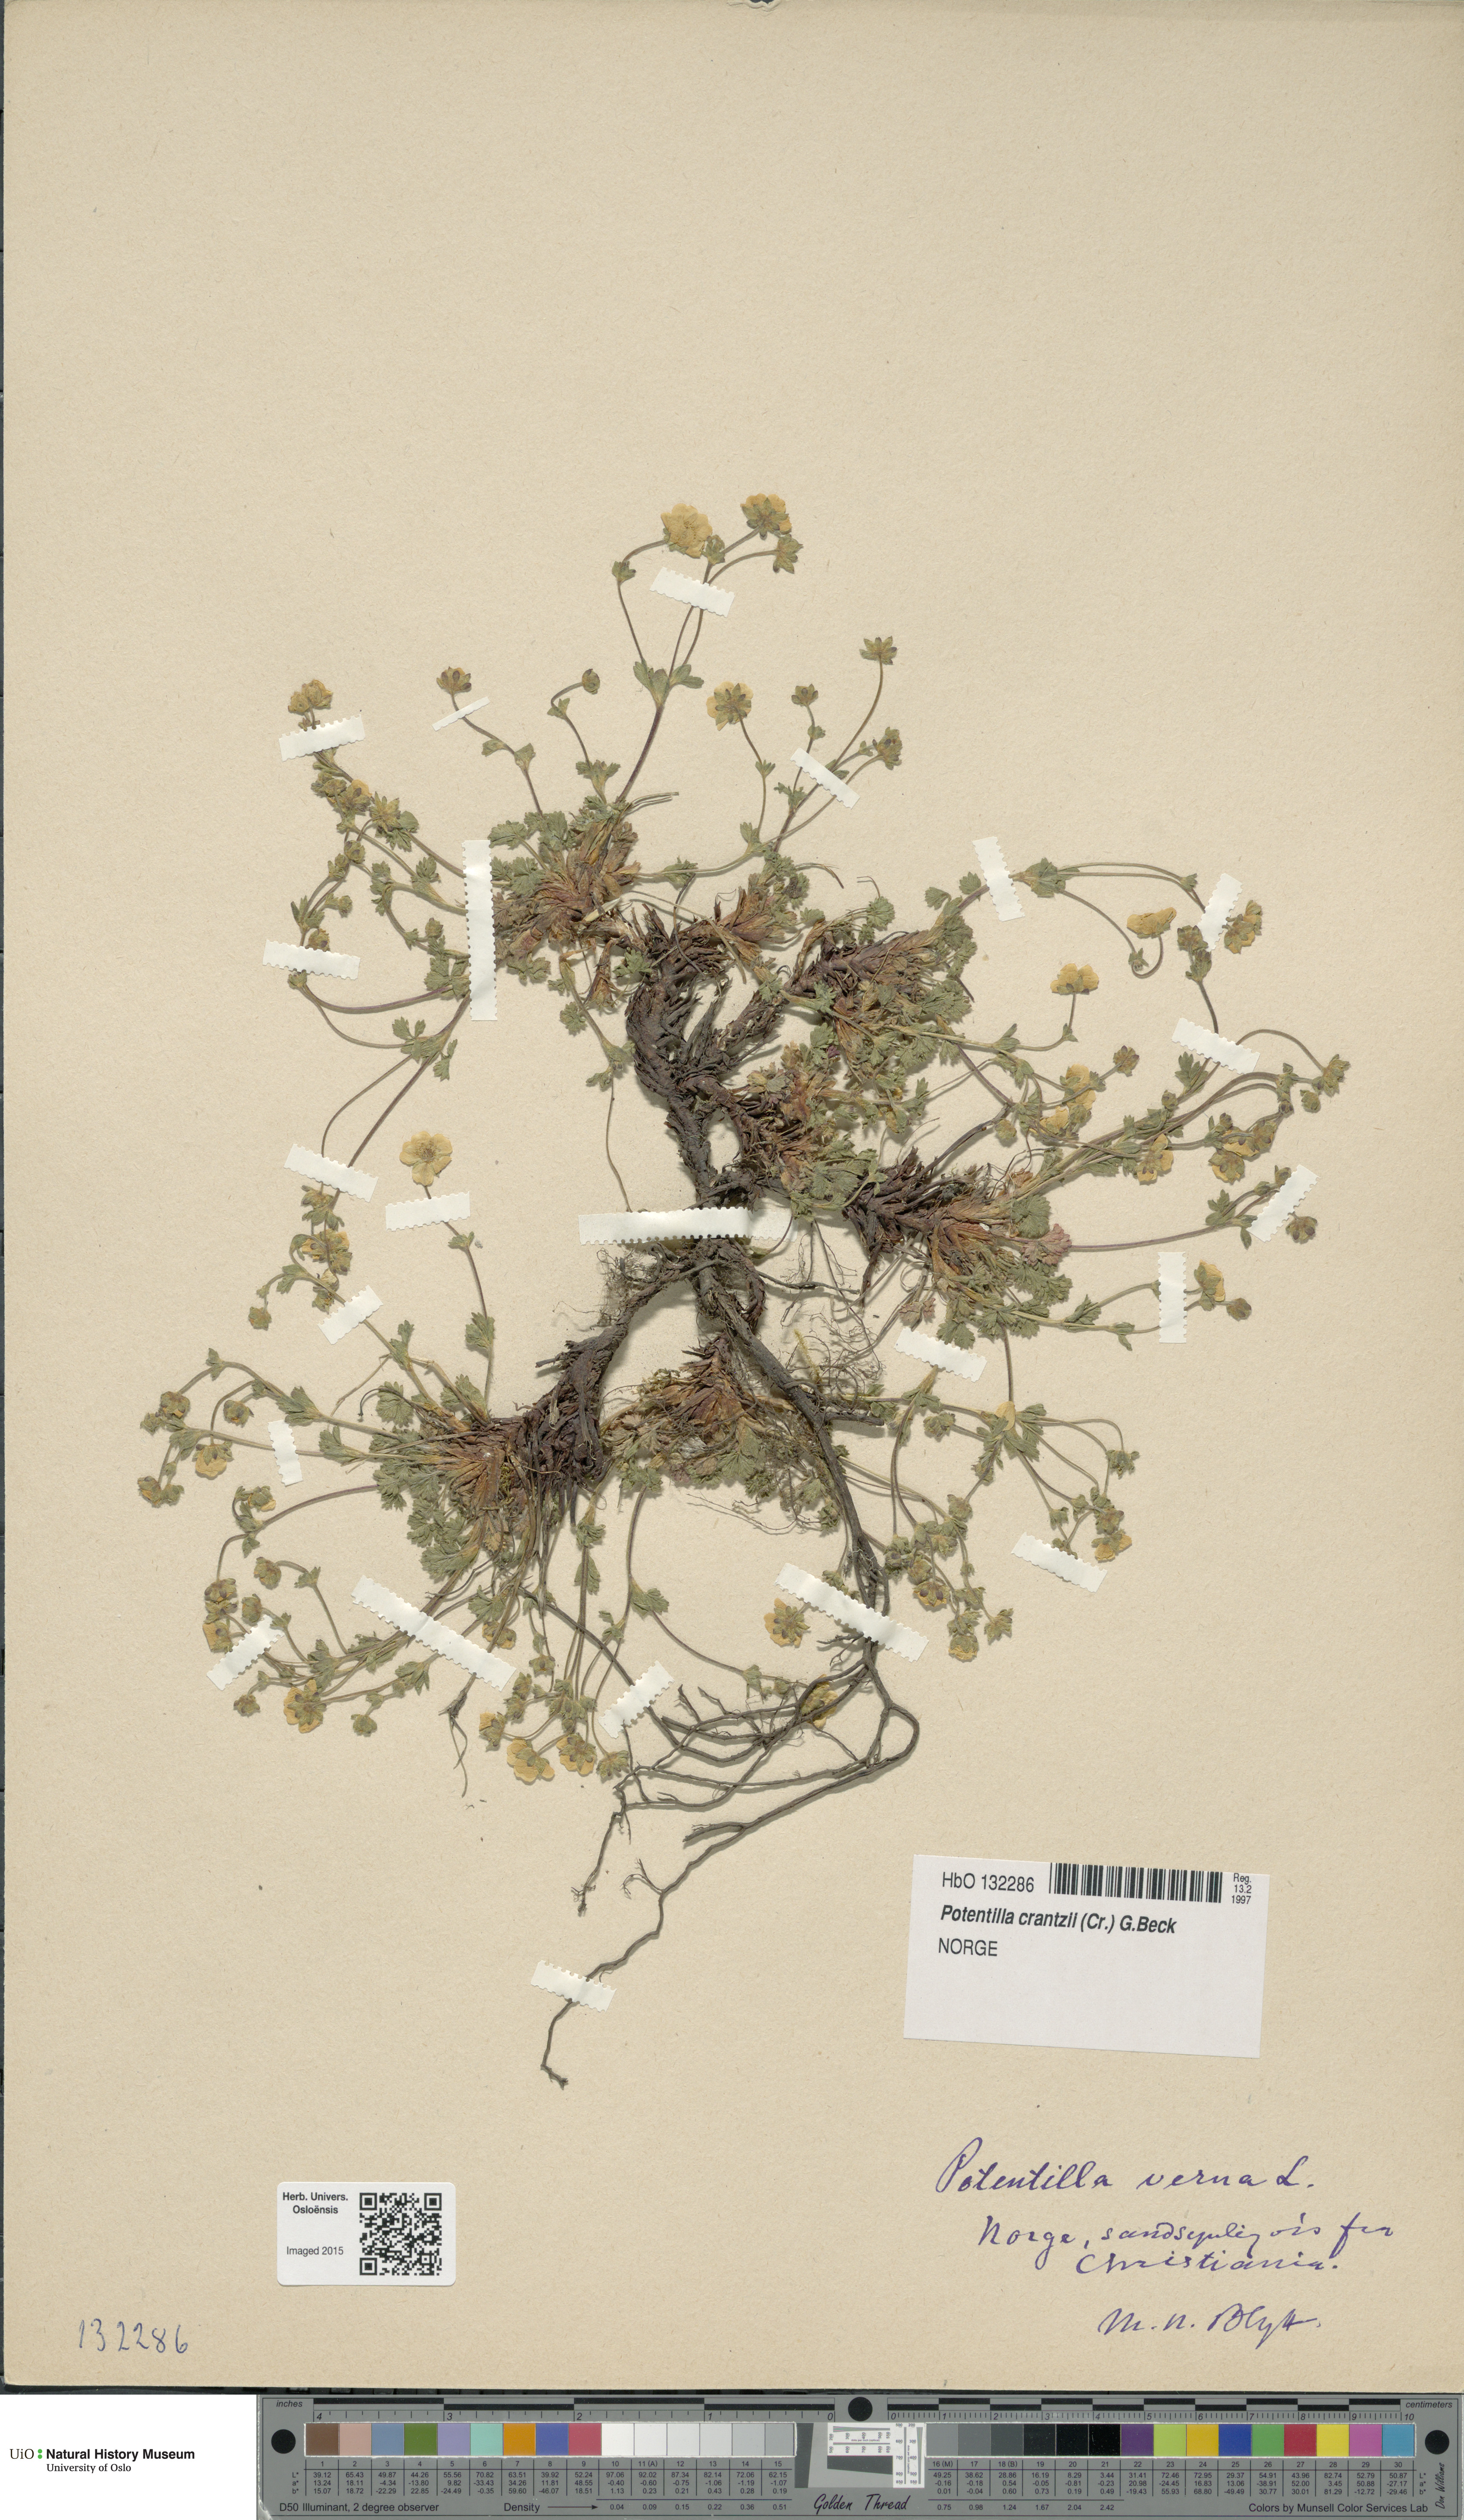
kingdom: Plantae
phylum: Tracheophyta
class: Magnoliopsida
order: Rosales
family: Rosaceae
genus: Potentilla
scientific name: Potentilla verna
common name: Spring cinquefoil
